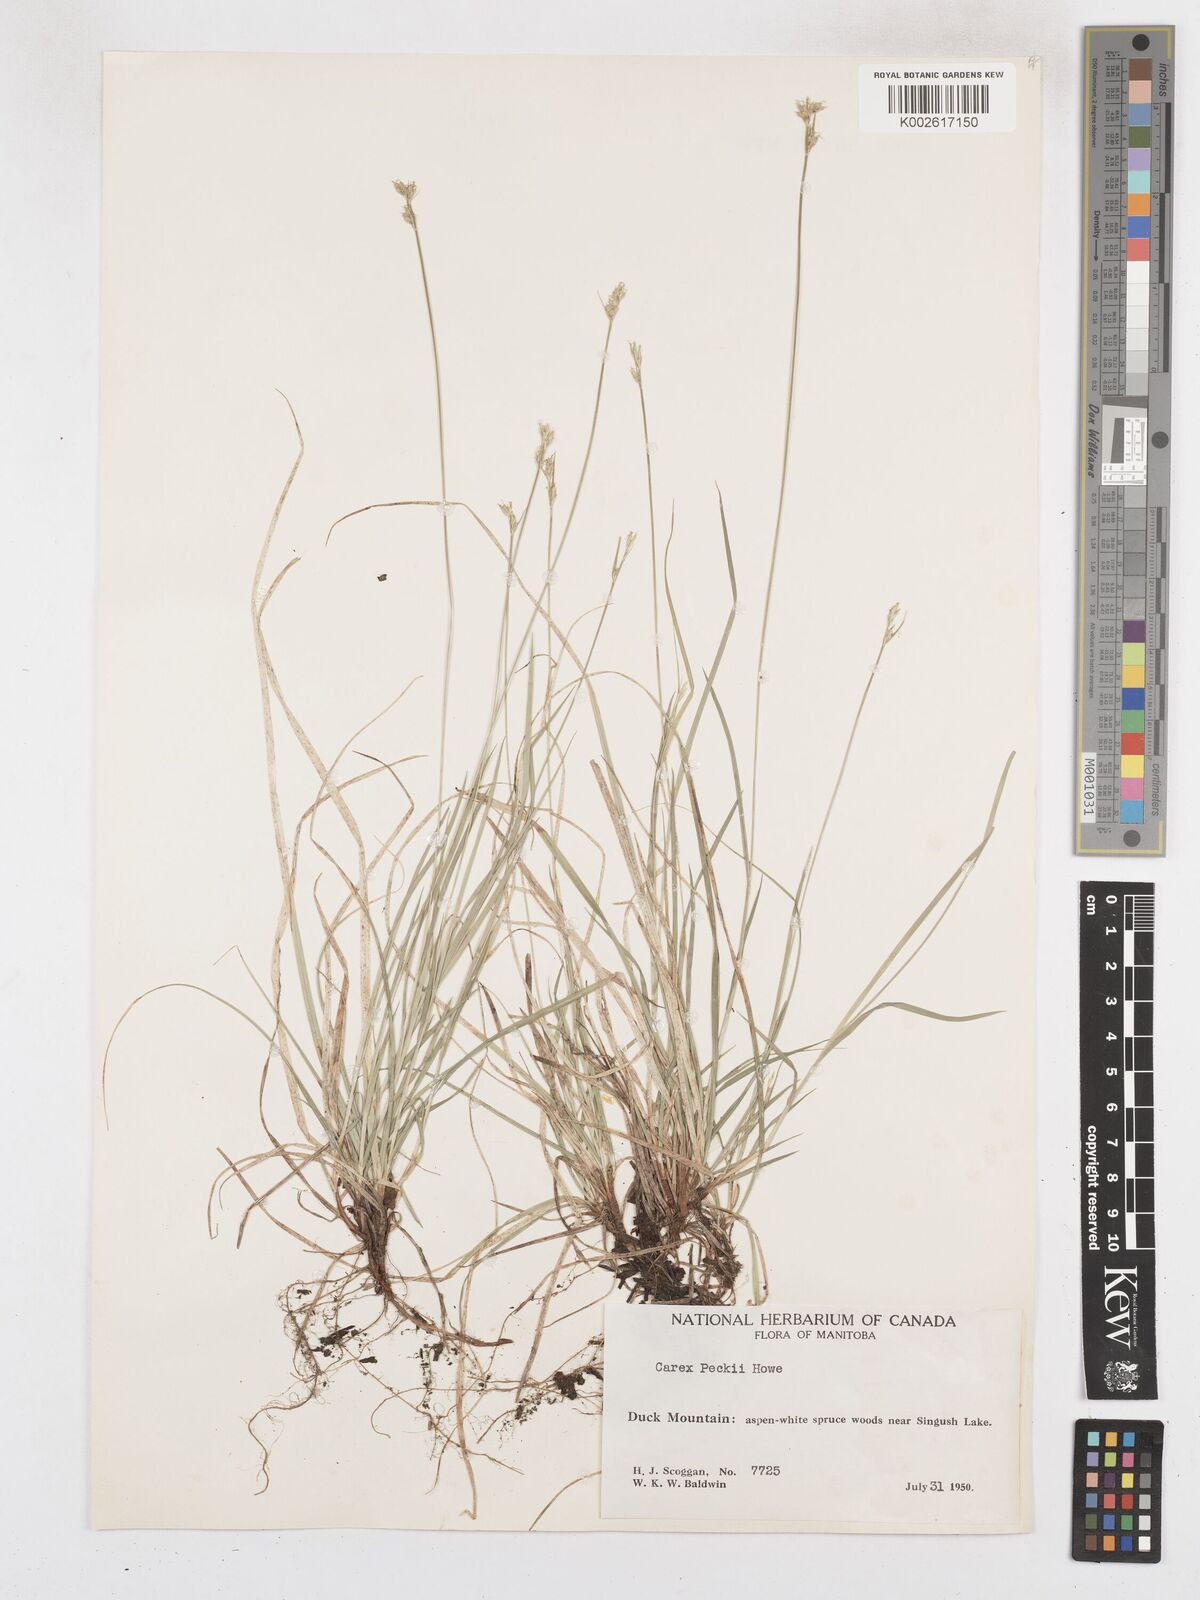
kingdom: Plantae
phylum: Tracheophyta
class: Liliopsida
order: Poales
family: Cyperaceae
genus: Carex
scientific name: Carex peckii
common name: Peck's oak sedge
